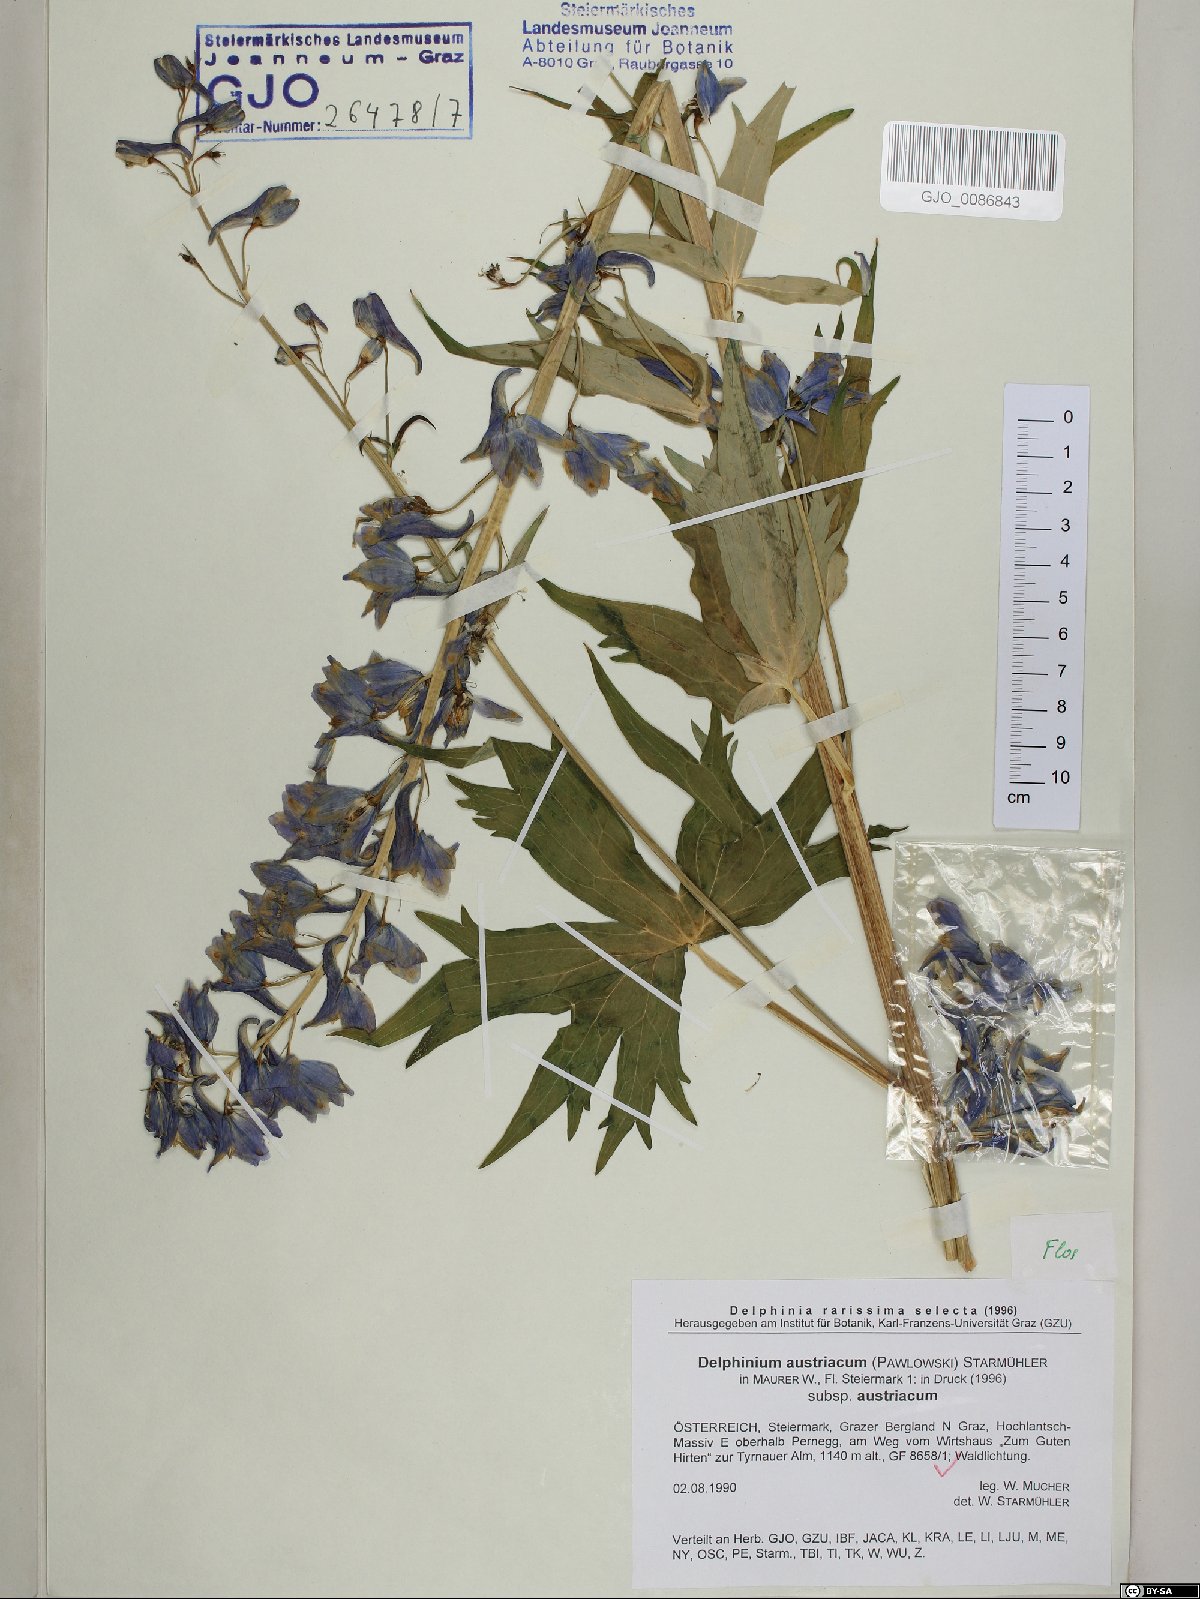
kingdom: Plantae
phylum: Tracheophyta
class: Magnoliopsida
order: Ranunculales
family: Ranunculaceae
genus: Delphinium
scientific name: Delphinium austriacum
